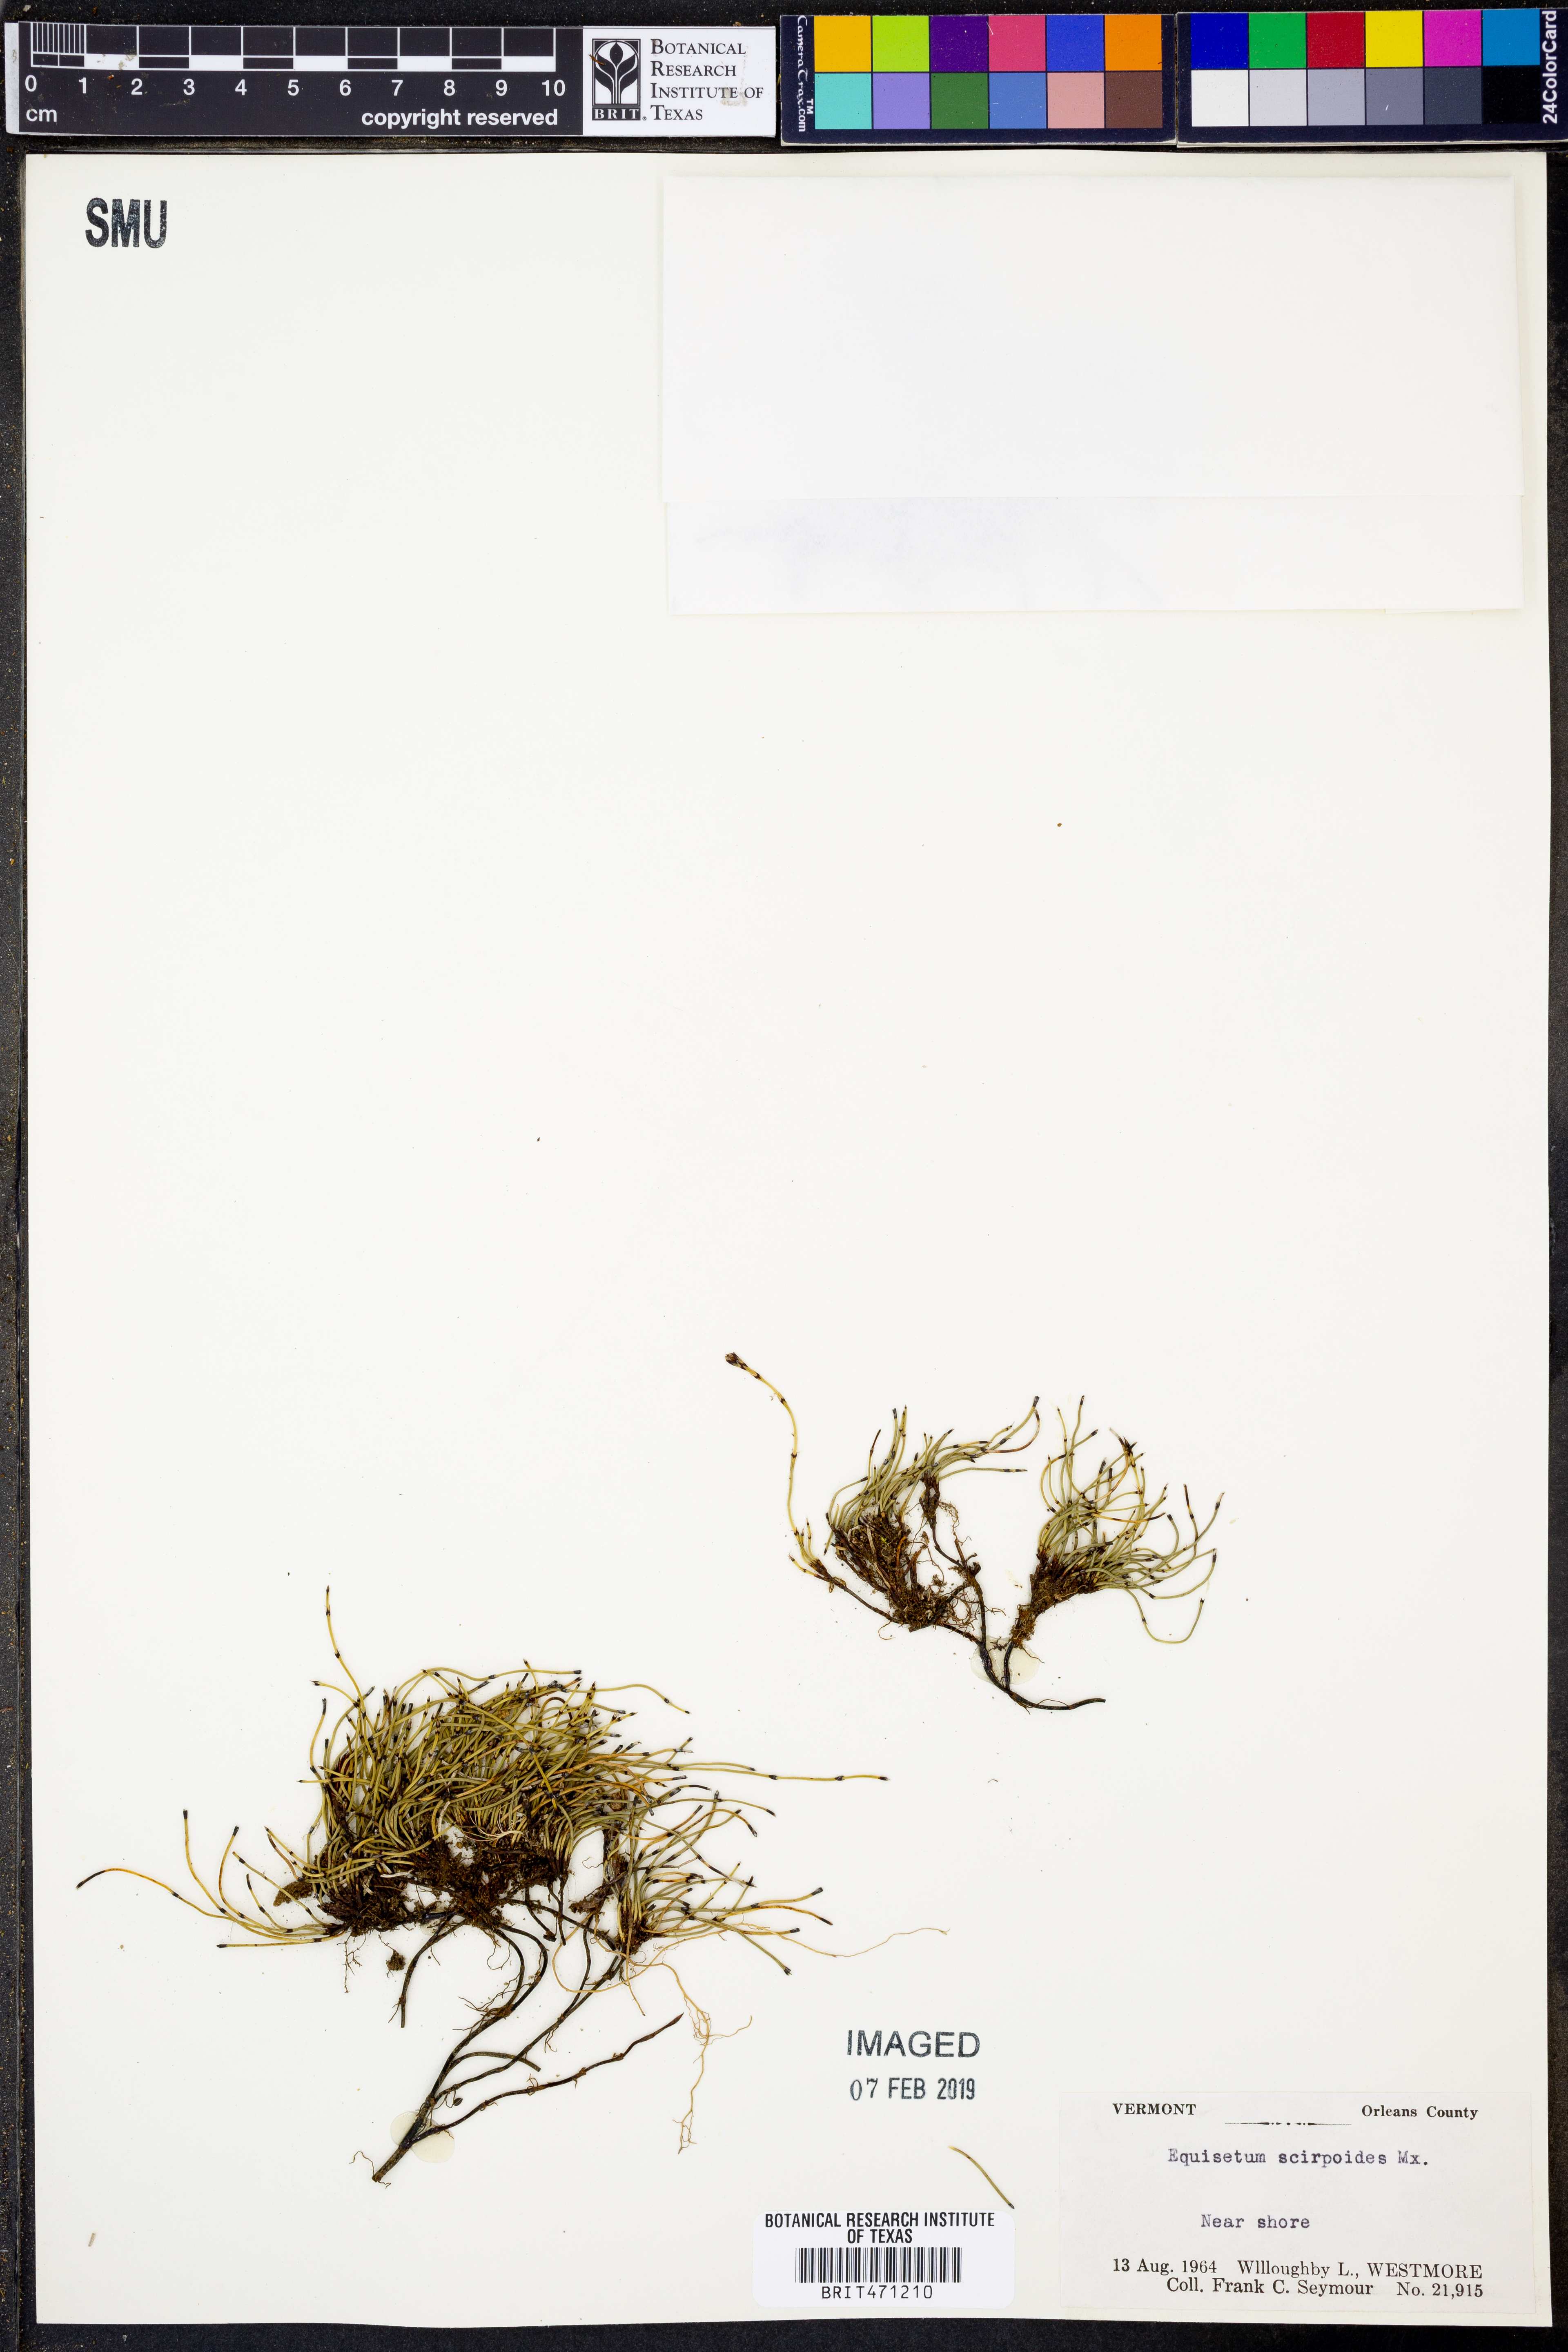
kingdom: Plantae
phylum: Tracheophyta
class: Polypodiopsida
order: Equisetales
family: Equisetaceae
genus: Equisetum
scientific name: Equisetum scirpoides
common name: Delicate horsetail
